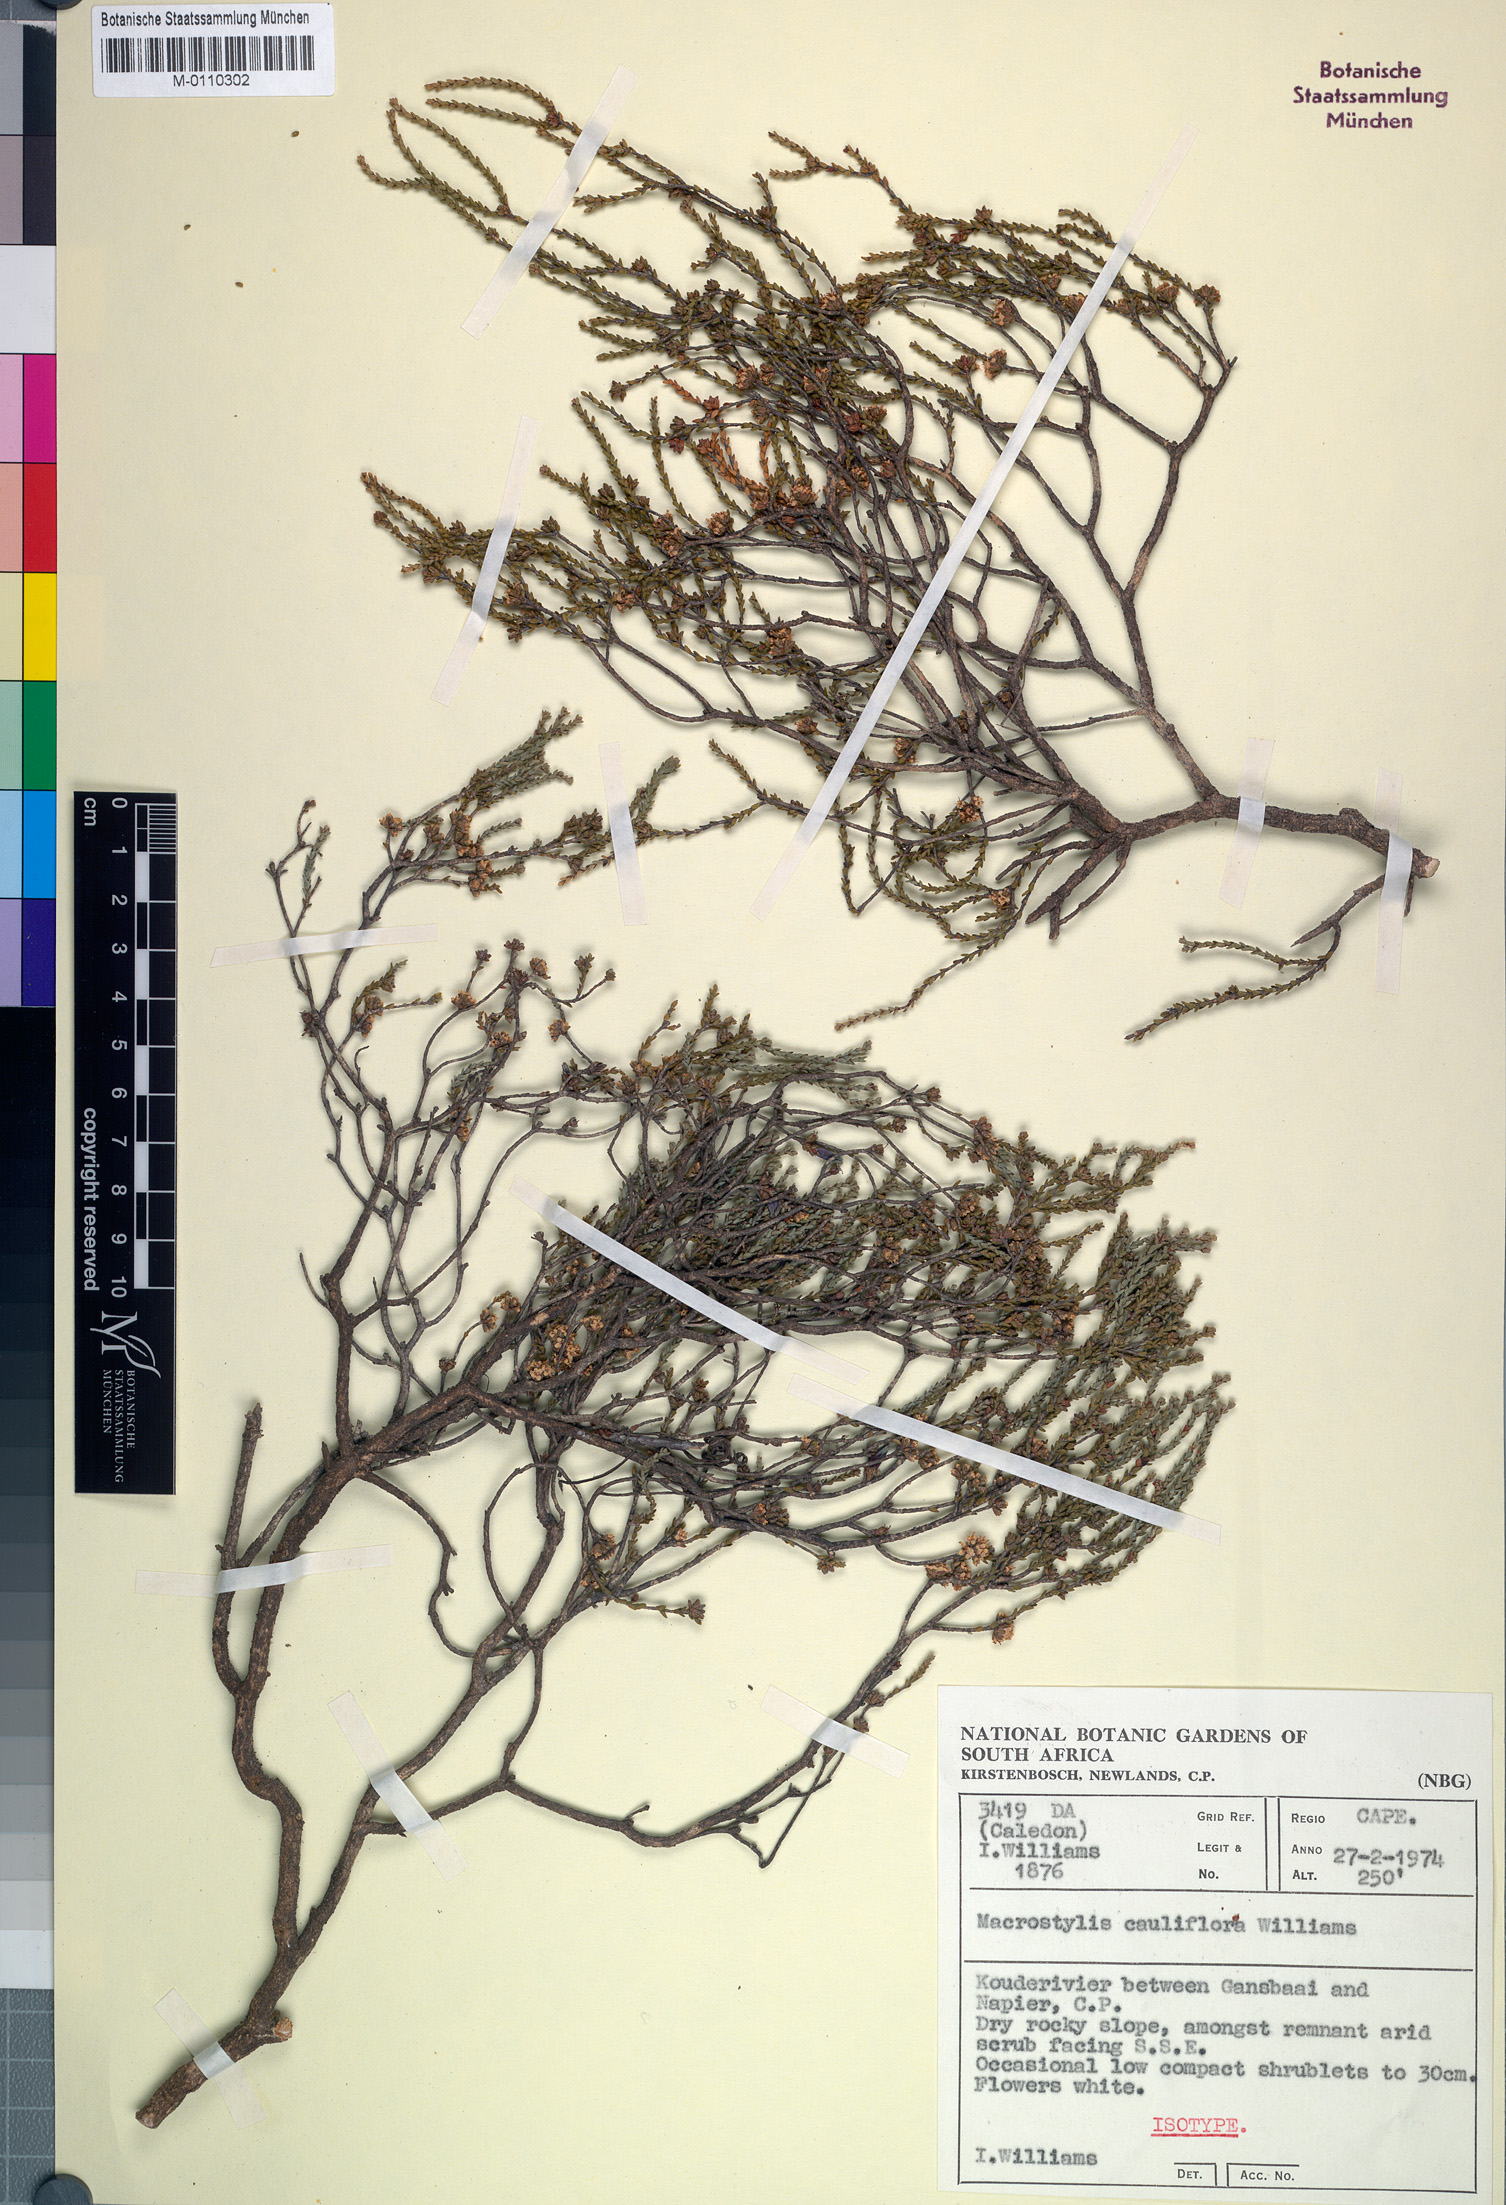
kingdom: Plantae
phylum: Tracheophyta
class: Magnoliopsida
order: Sapindales
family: Rutaceae
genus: Macrostylis
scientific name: Macrostylis cauliflora
